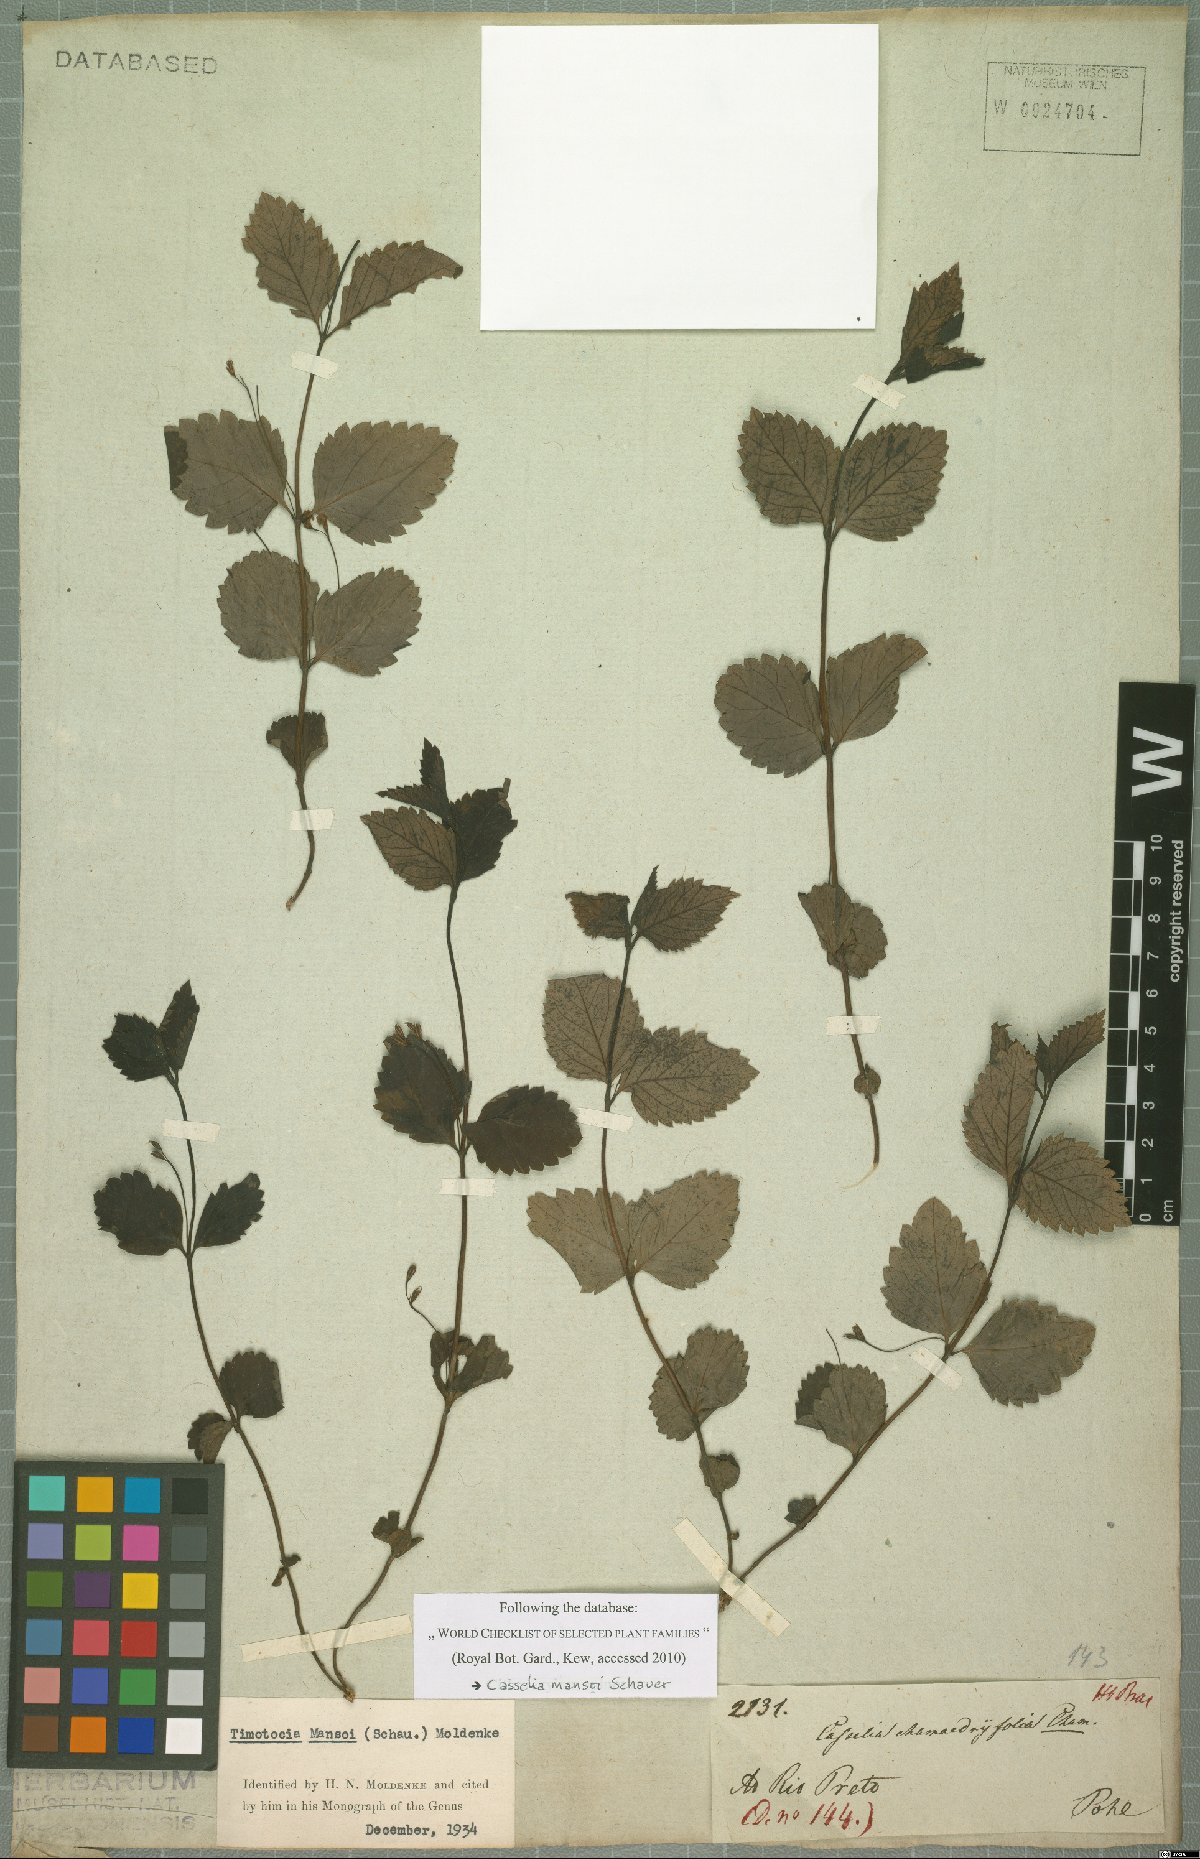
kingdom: Plantae
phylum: Tracheophyta
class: Magnoliopsida
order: Lamiales
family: Verbenaceae
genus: Casselia
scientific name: Casselia chamaedryfolia
